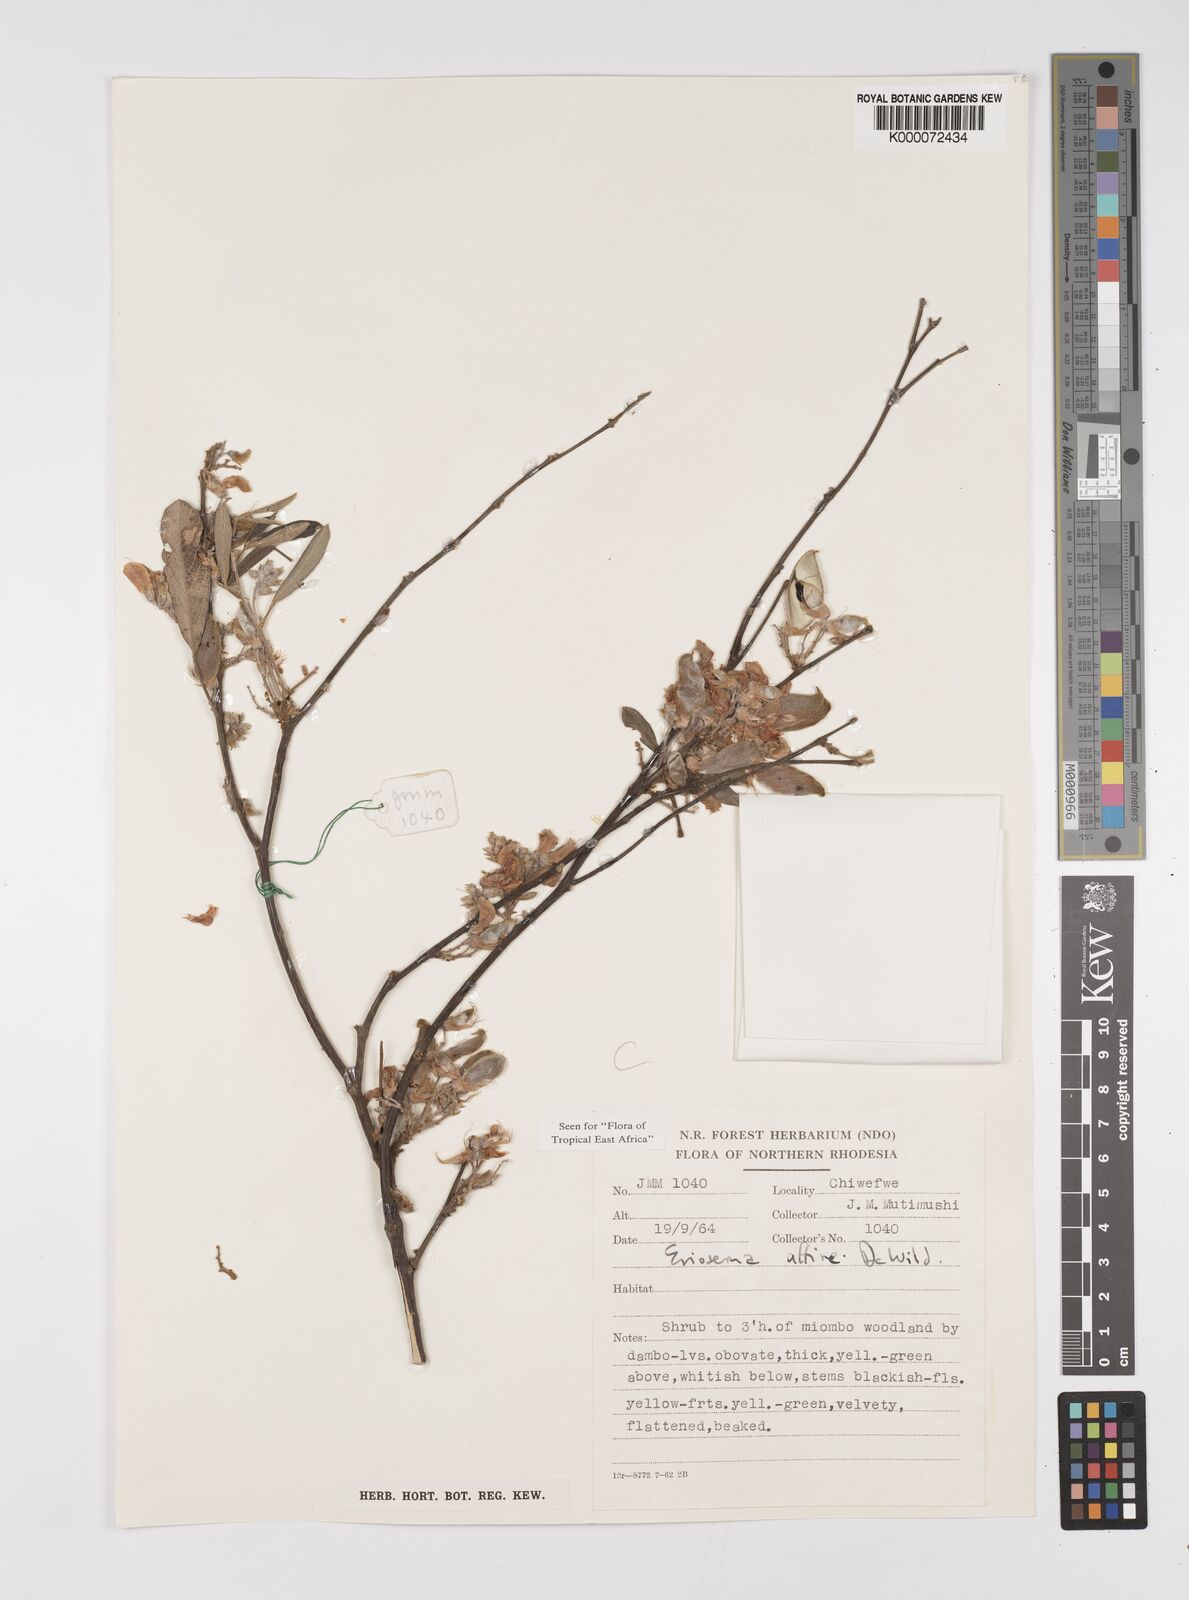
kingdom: Plantae
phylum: Tracheophyta
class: Magnoliopsida
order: Fabales
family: Fabaceae
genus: Eriosema
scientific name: Eriosema affine
